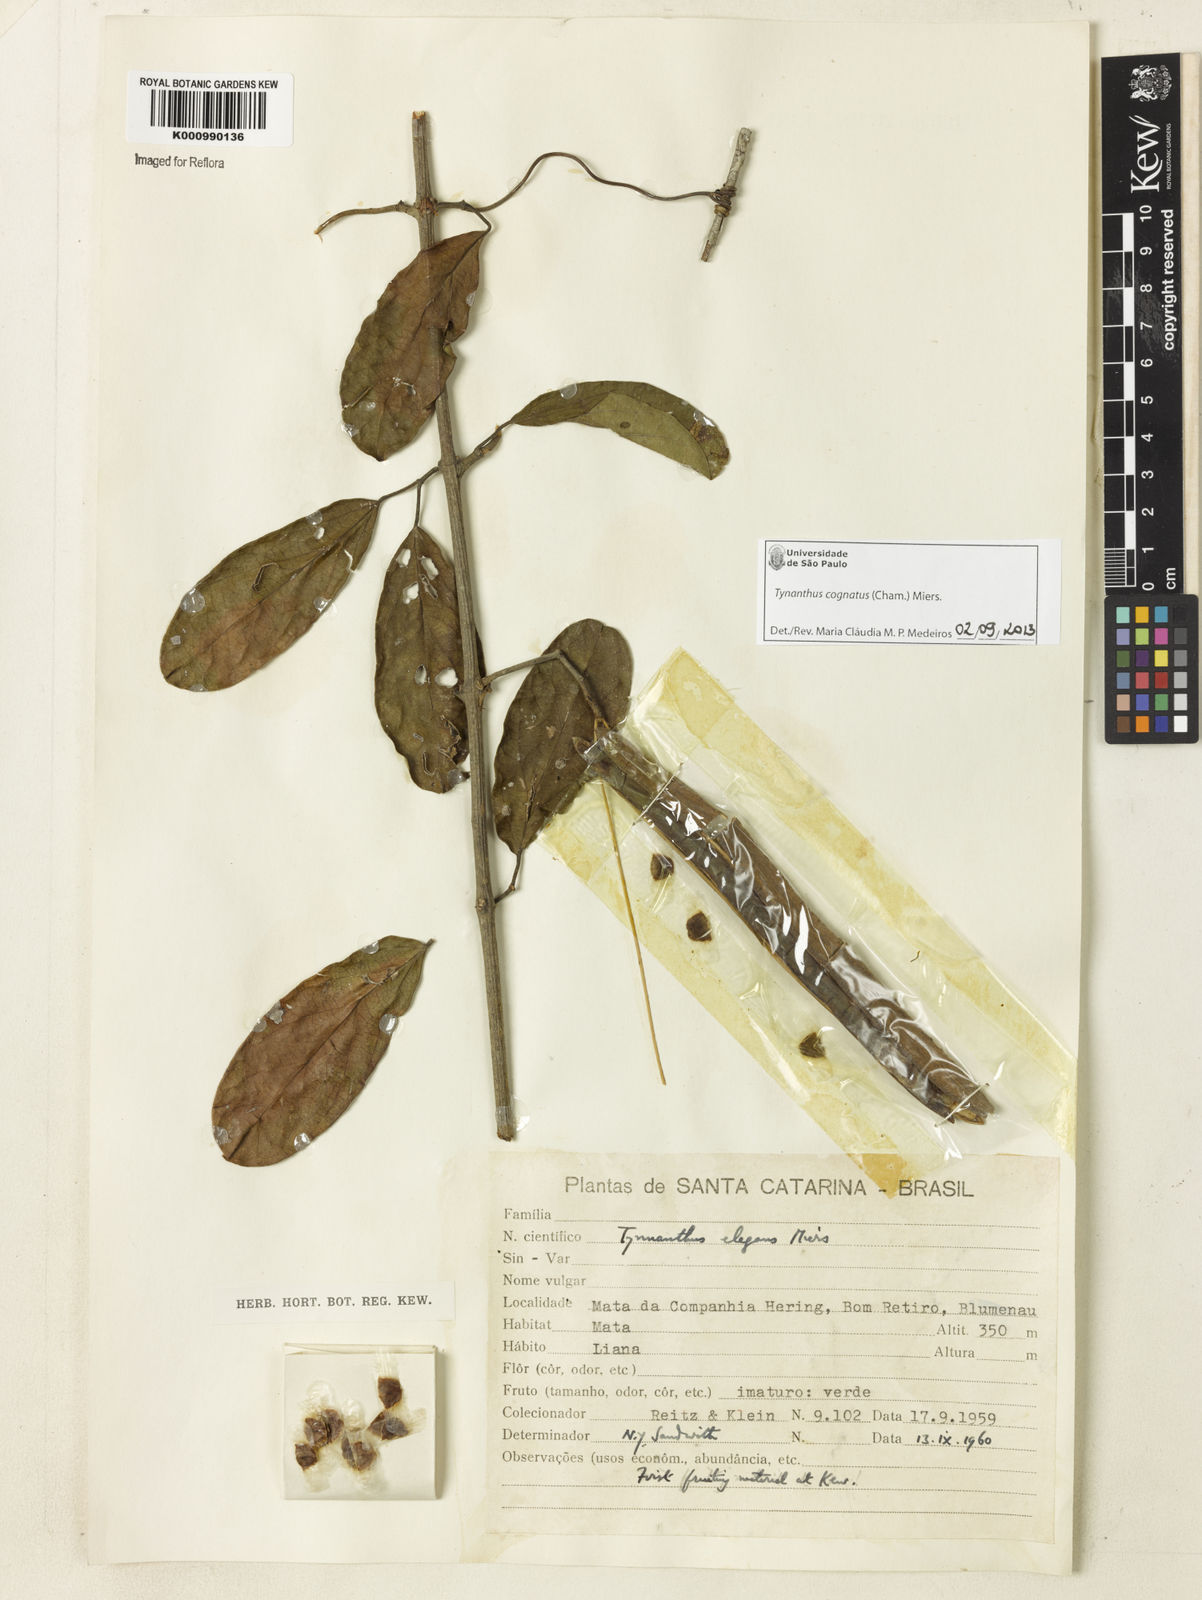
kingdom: Plantae
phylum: Tracheophyta
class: Magnoliopsida
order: Lamiales
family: Bignoniaceae
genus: Tynanthus
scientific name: Tynanthus cognatus
